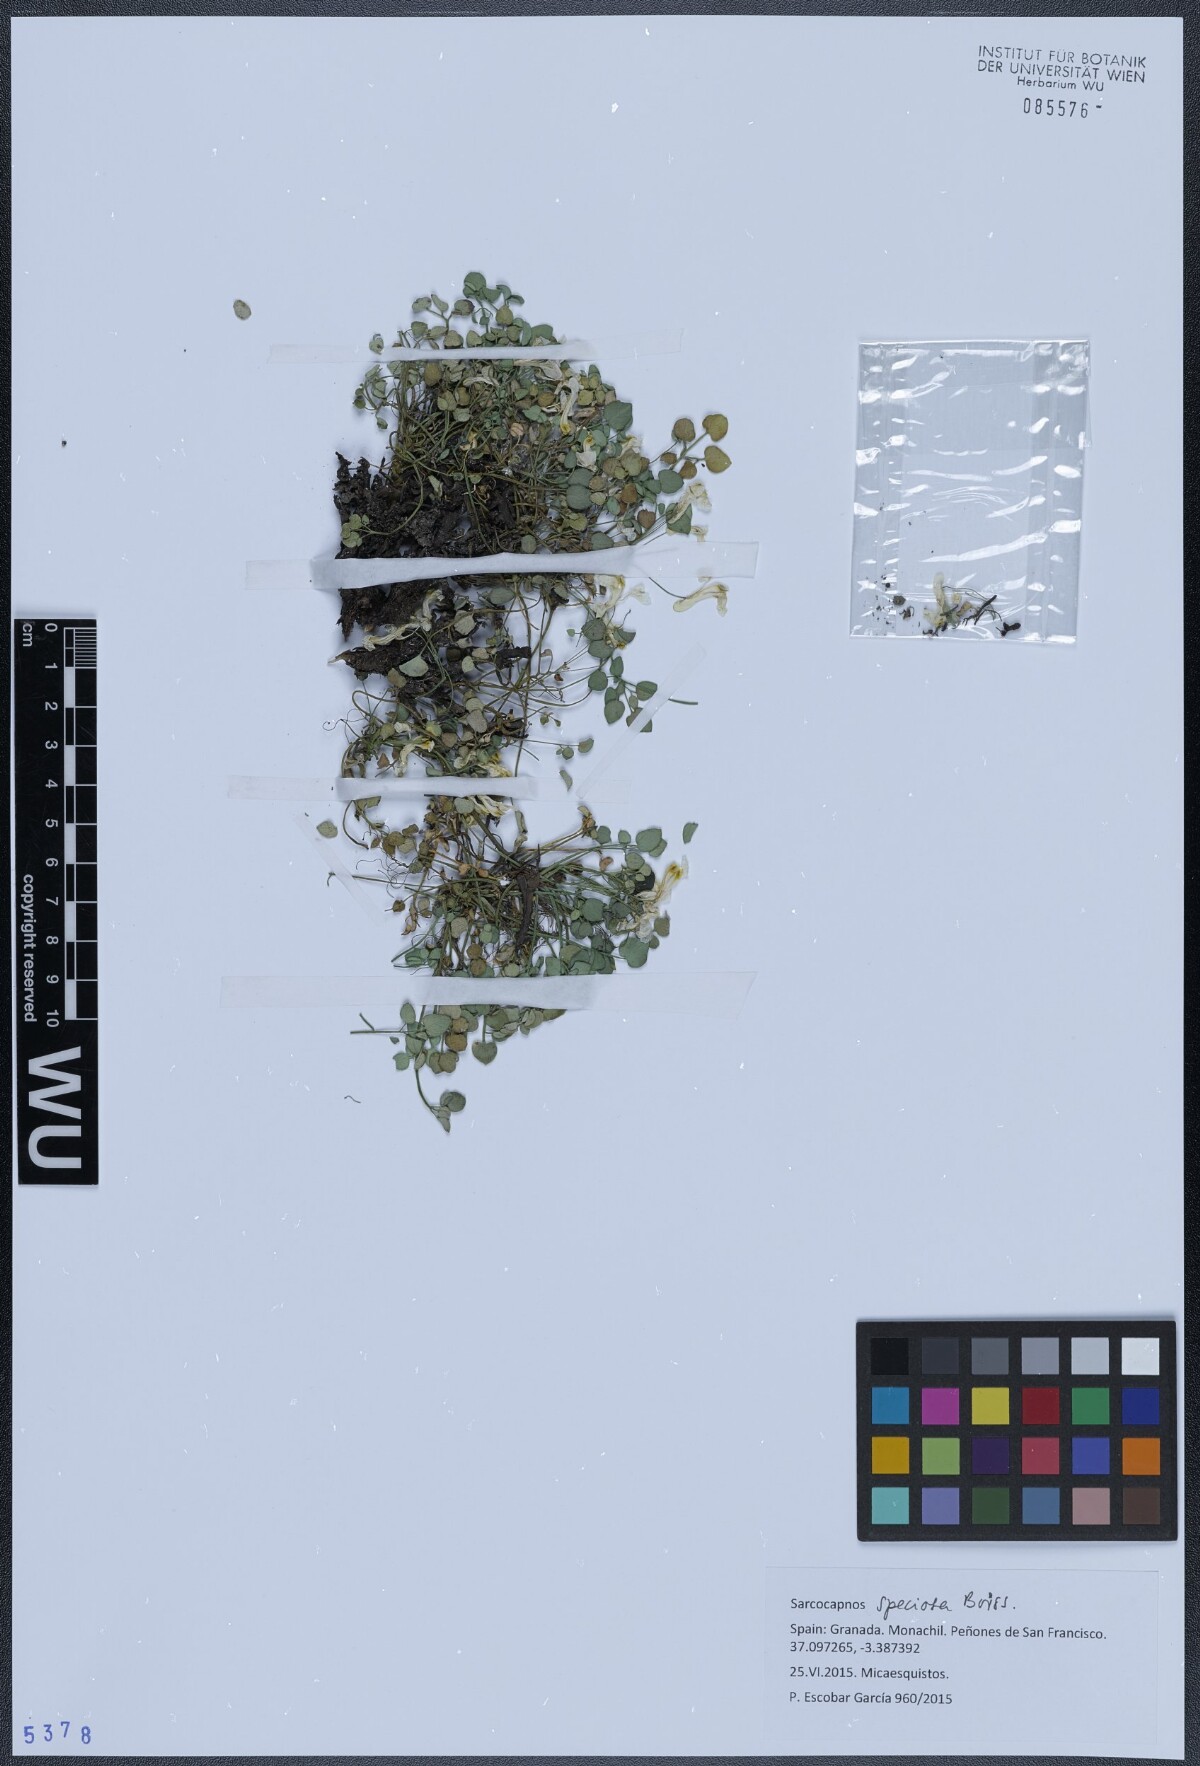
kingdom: Plantae
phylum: Tracheophyta
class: Magnoliopsida
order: Ranunculales
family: Papaveraceae
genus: Sarcocapnos
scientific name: Sarcocapnos crassifolia
